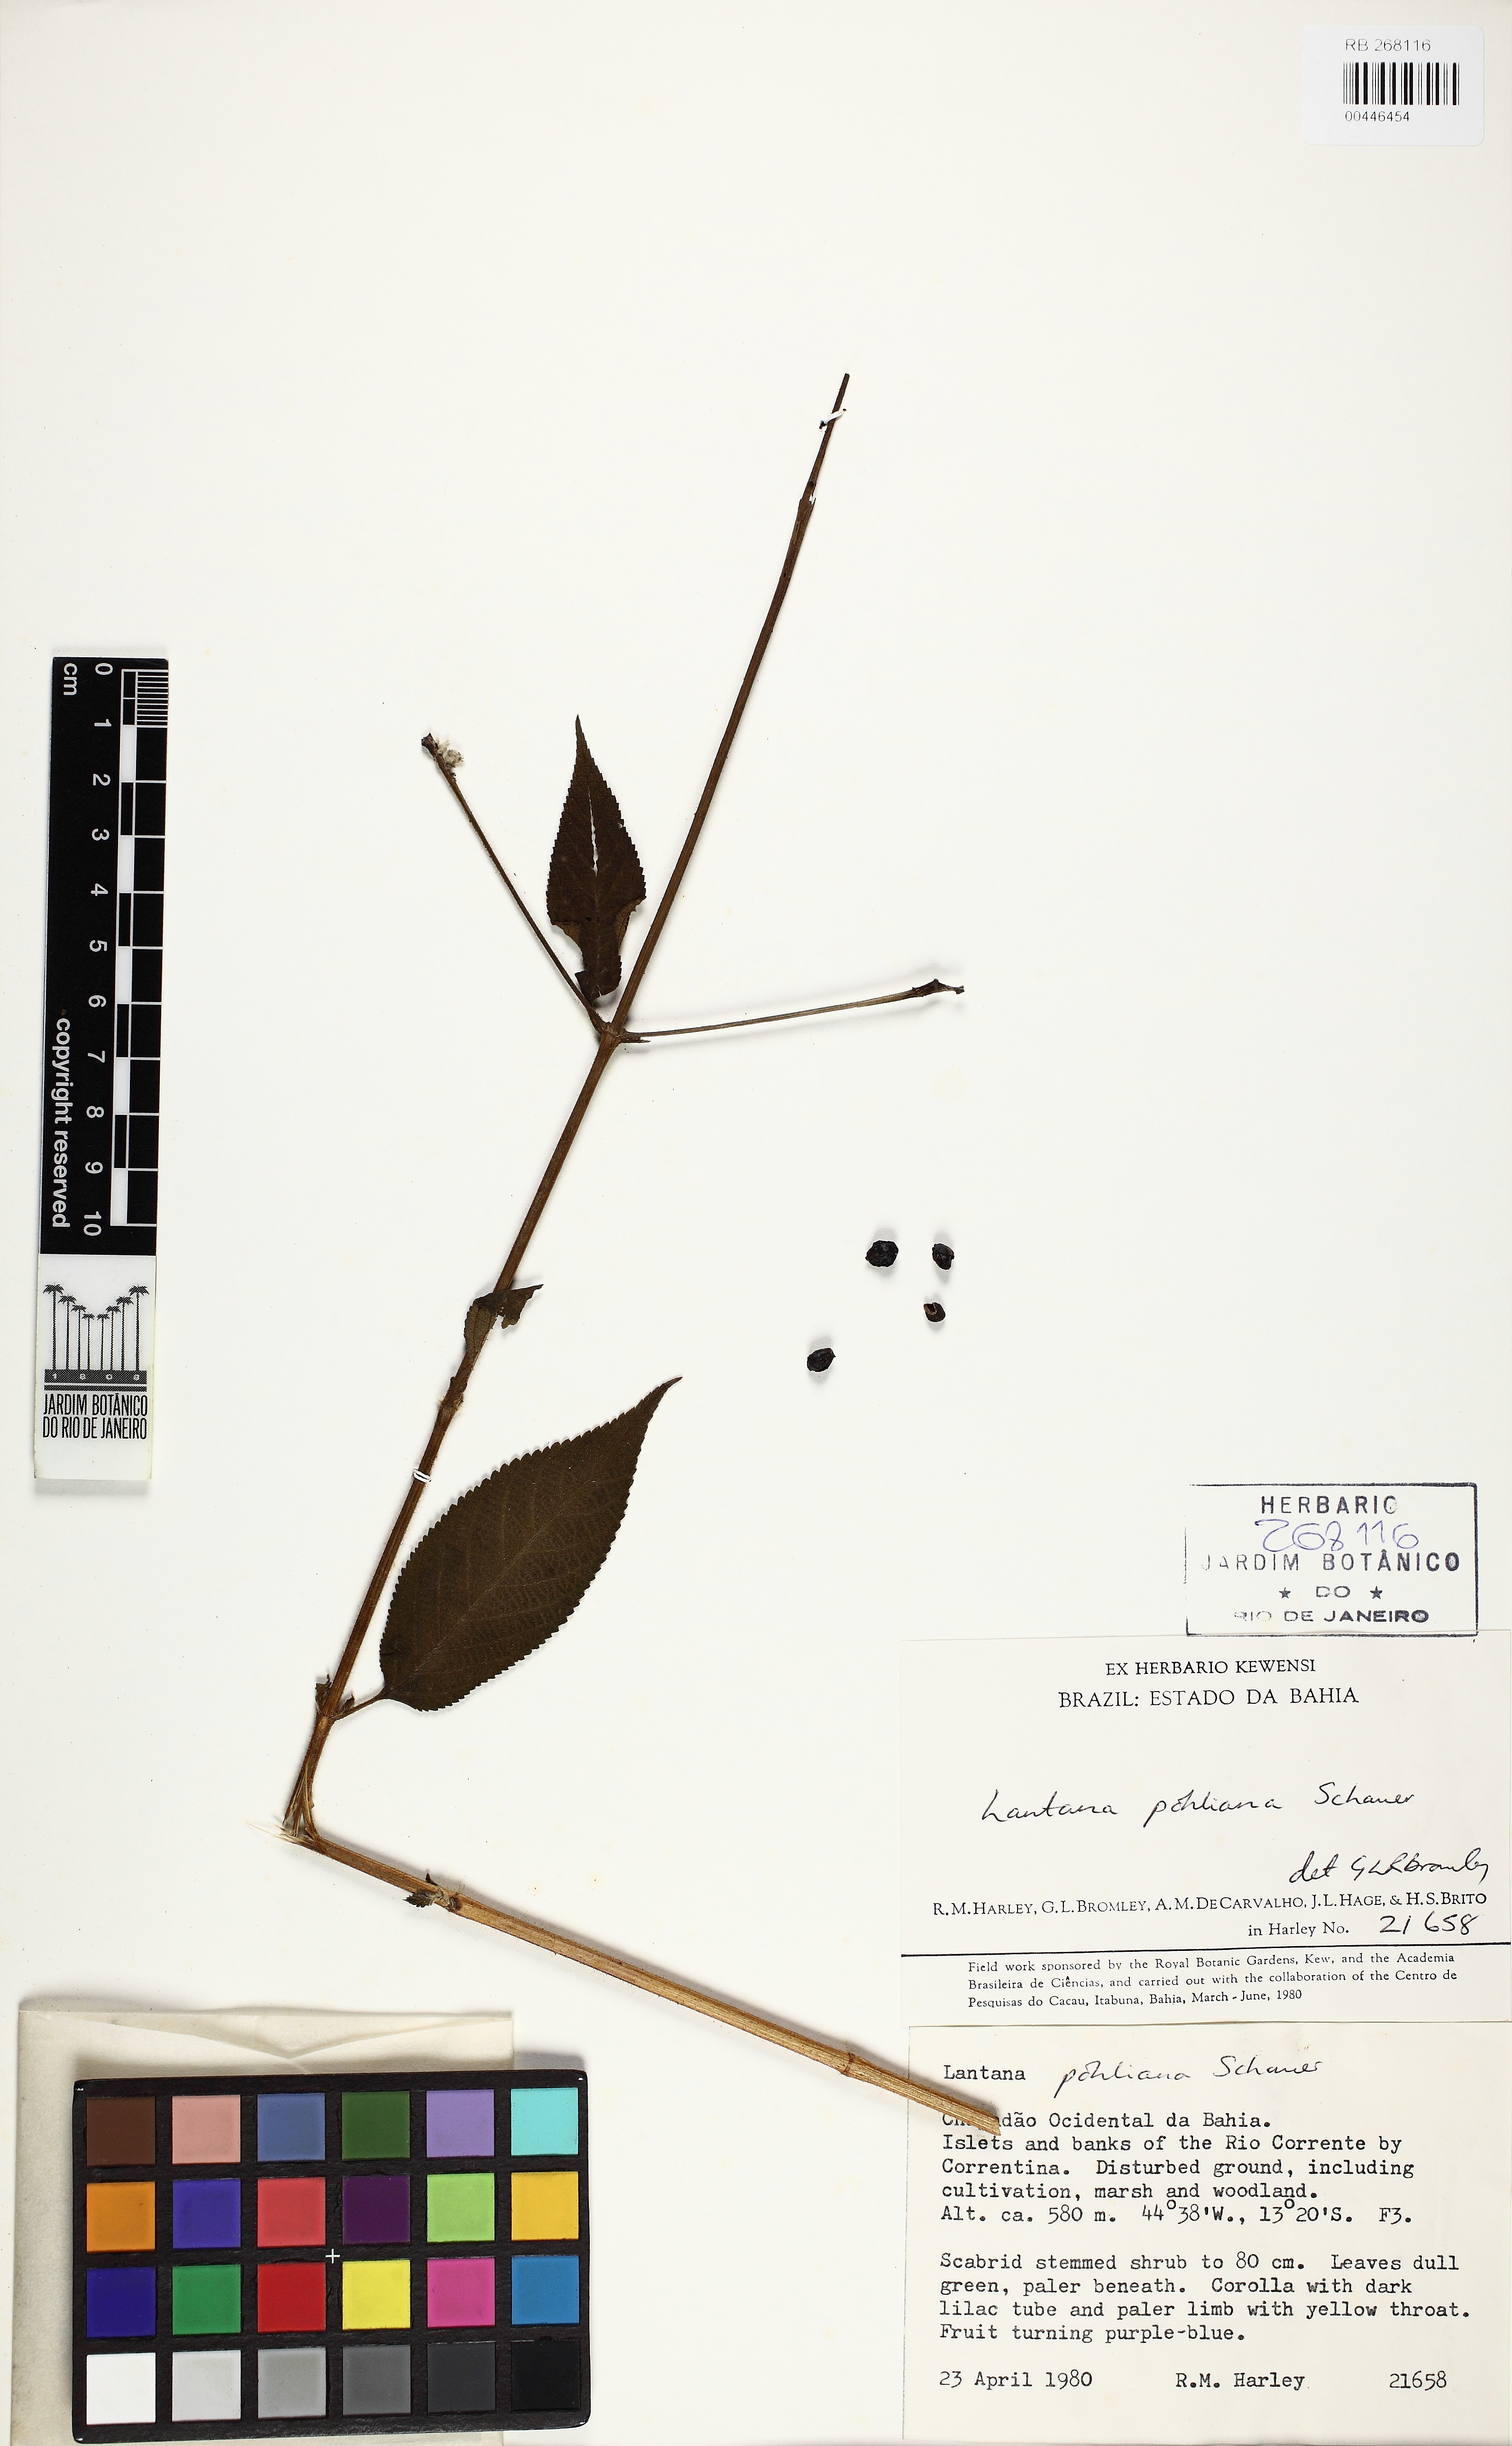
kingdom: Plantae
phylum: Tracheophyta
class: Magnoliopsida
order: Lamiales
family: Verbenaceae
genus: Lantana
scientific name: Lantana pohliana
